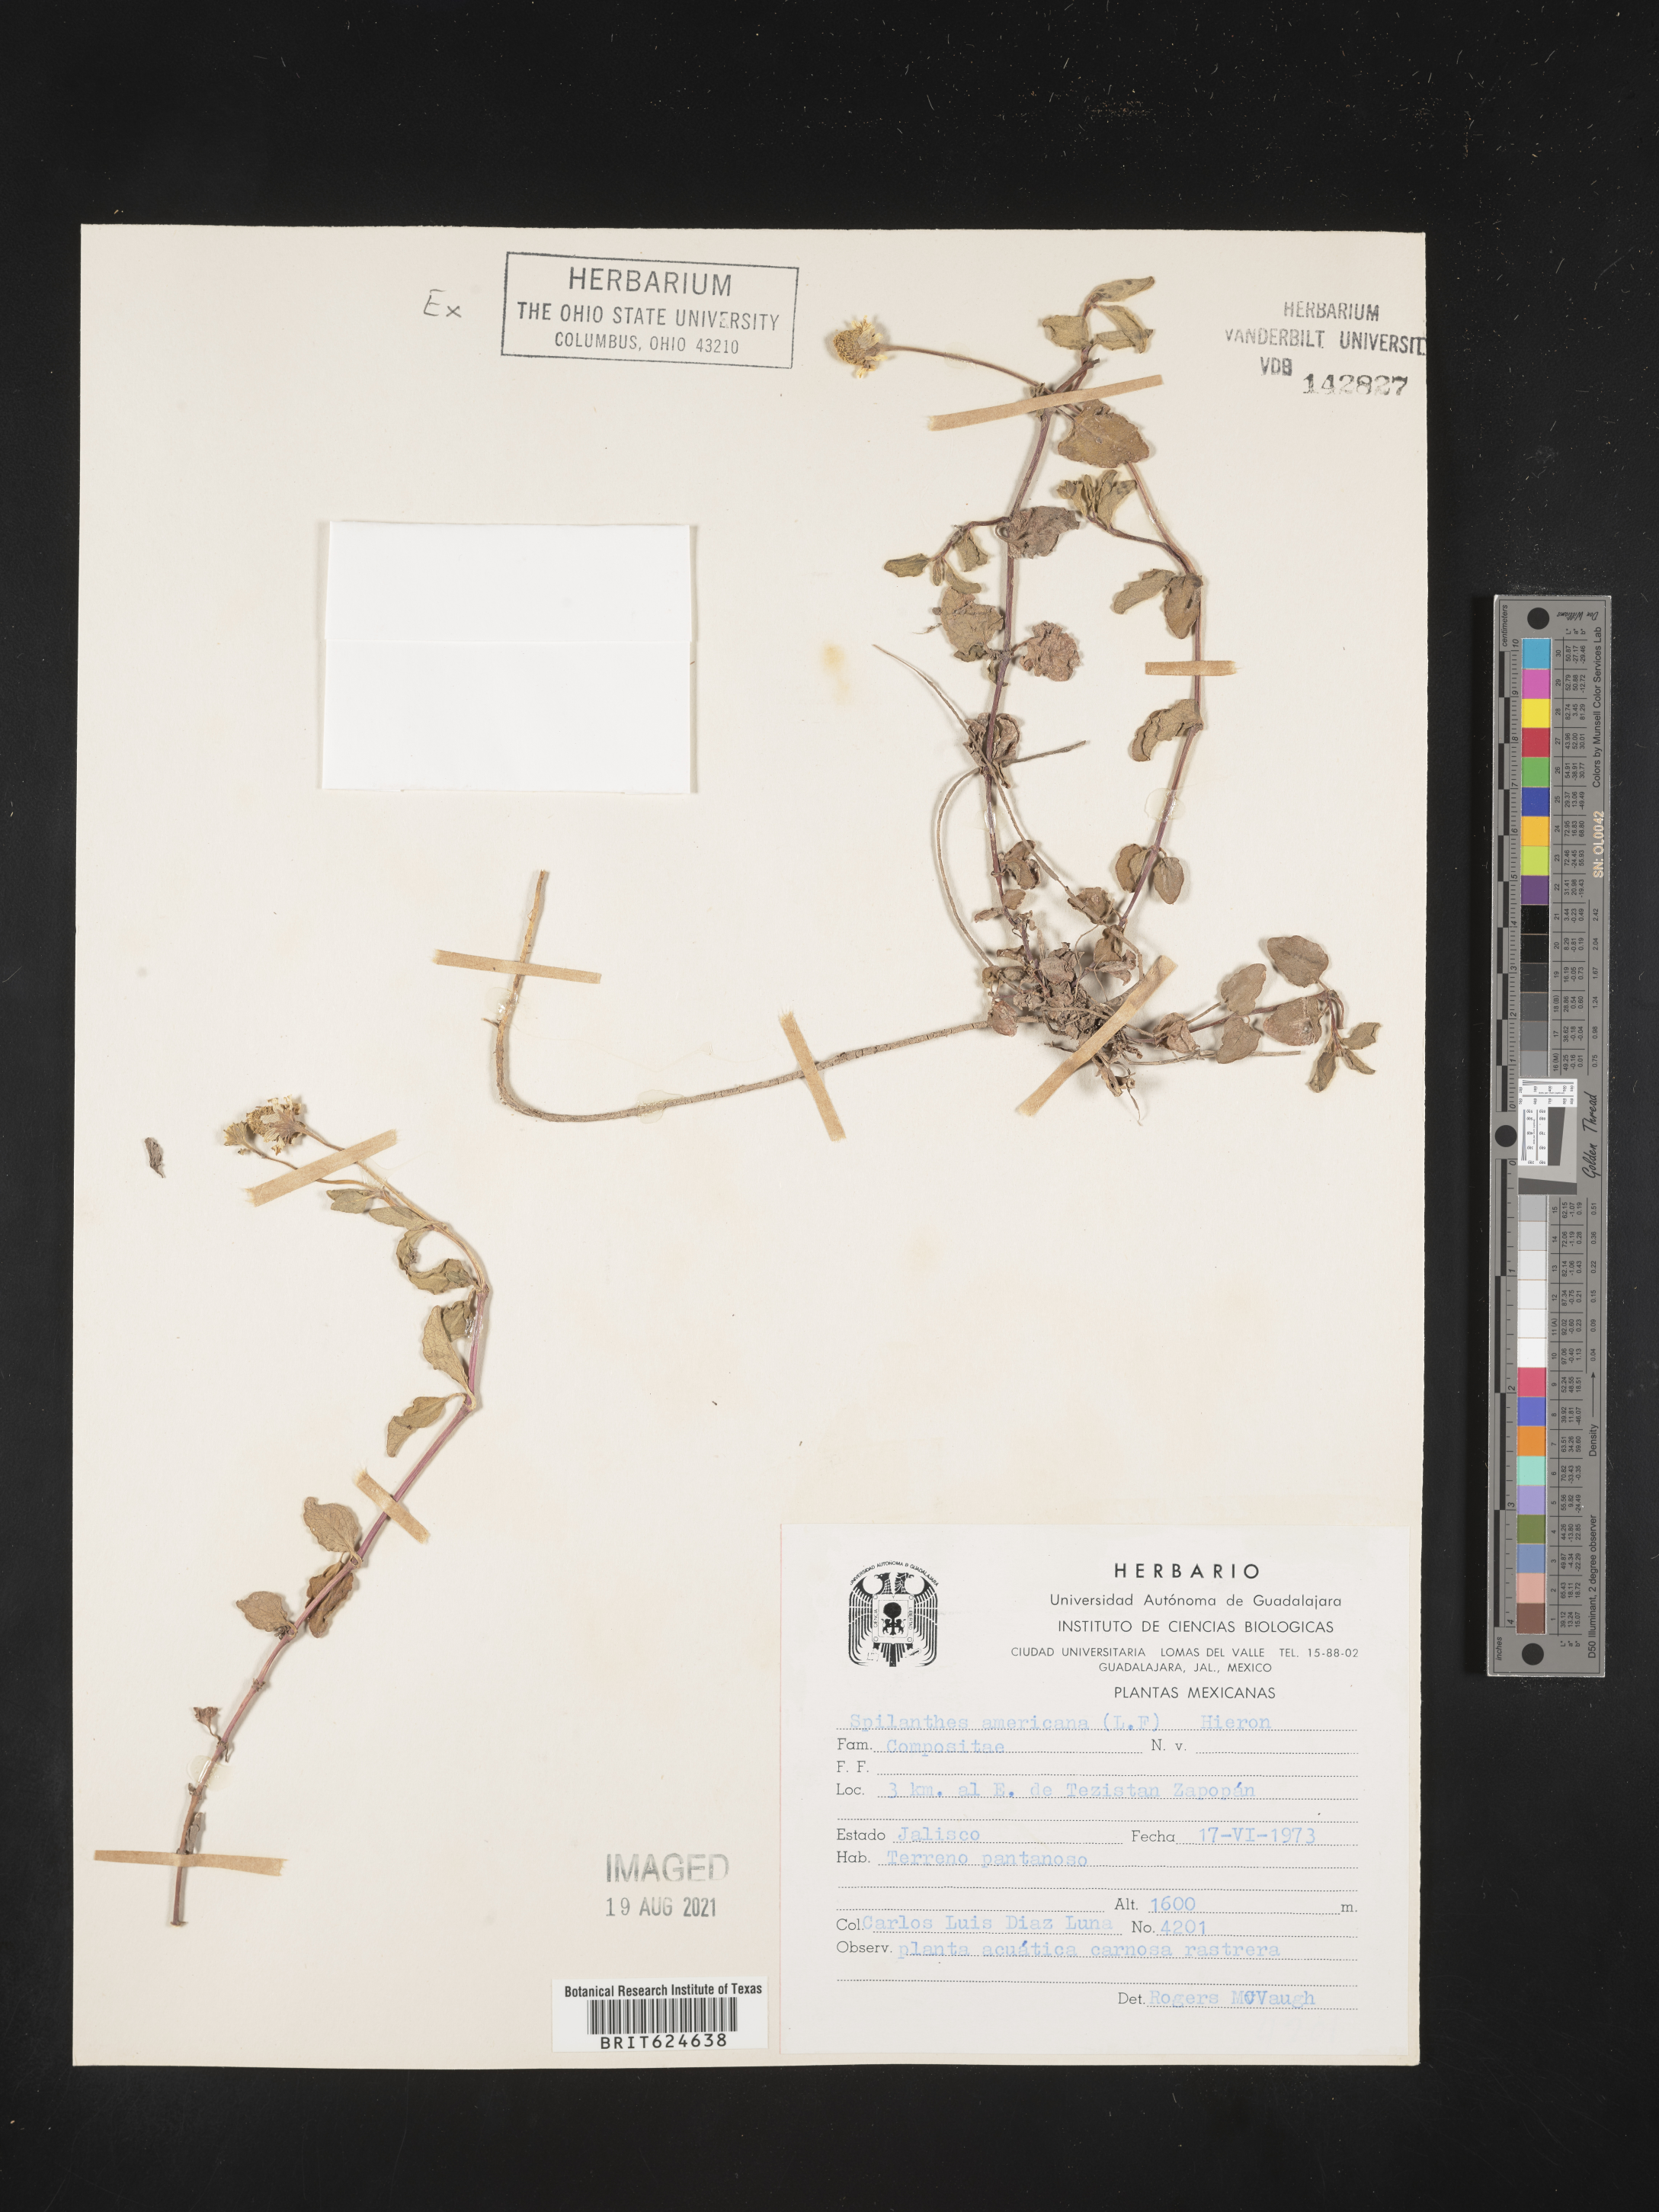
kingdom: Plantae
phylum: Tracheophyta
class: Magnoliopsida
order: Asterales
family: Asteraceae
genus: Heliopsis
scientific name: Heliopsis buphthalmoides
